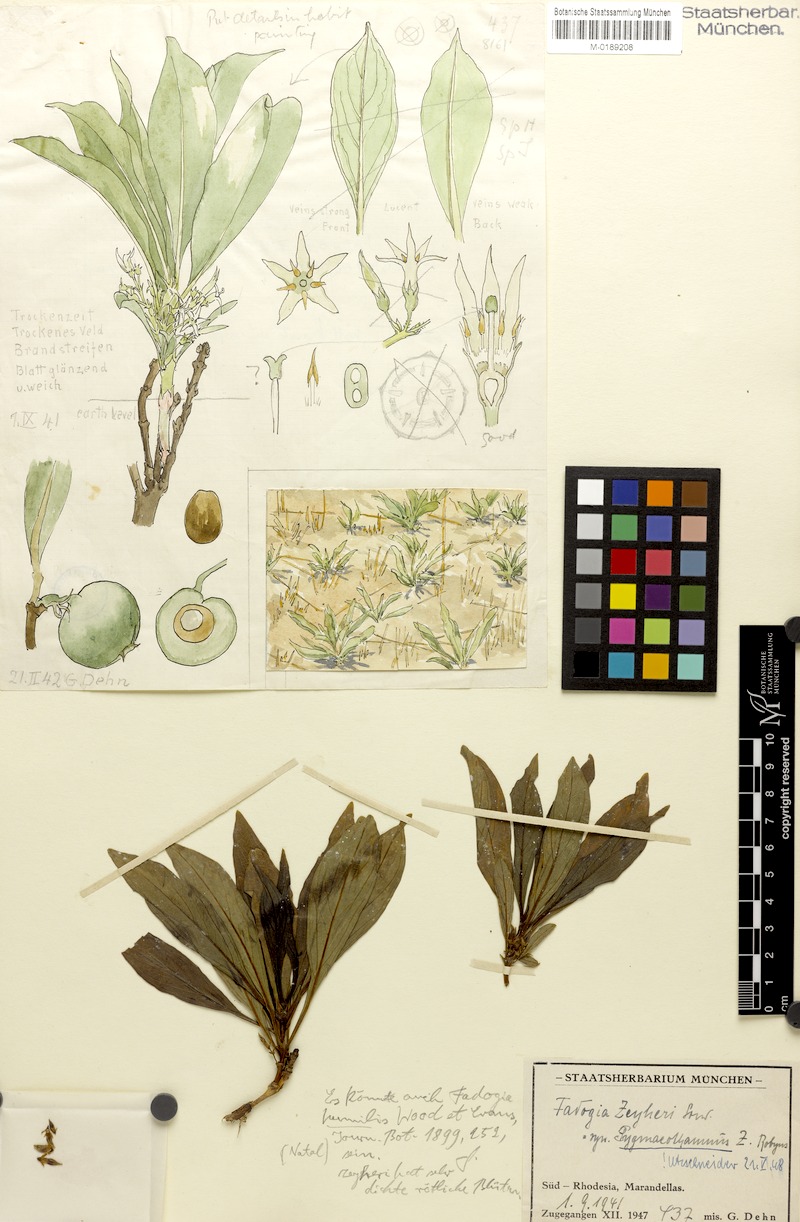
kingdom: Plantae
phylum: Tracheophyta
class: Magnoliopsida
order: Gentianales
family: Rubiaceae
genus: Pygmaeothamnus
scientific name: Pygmaeothamnus zeyheri
